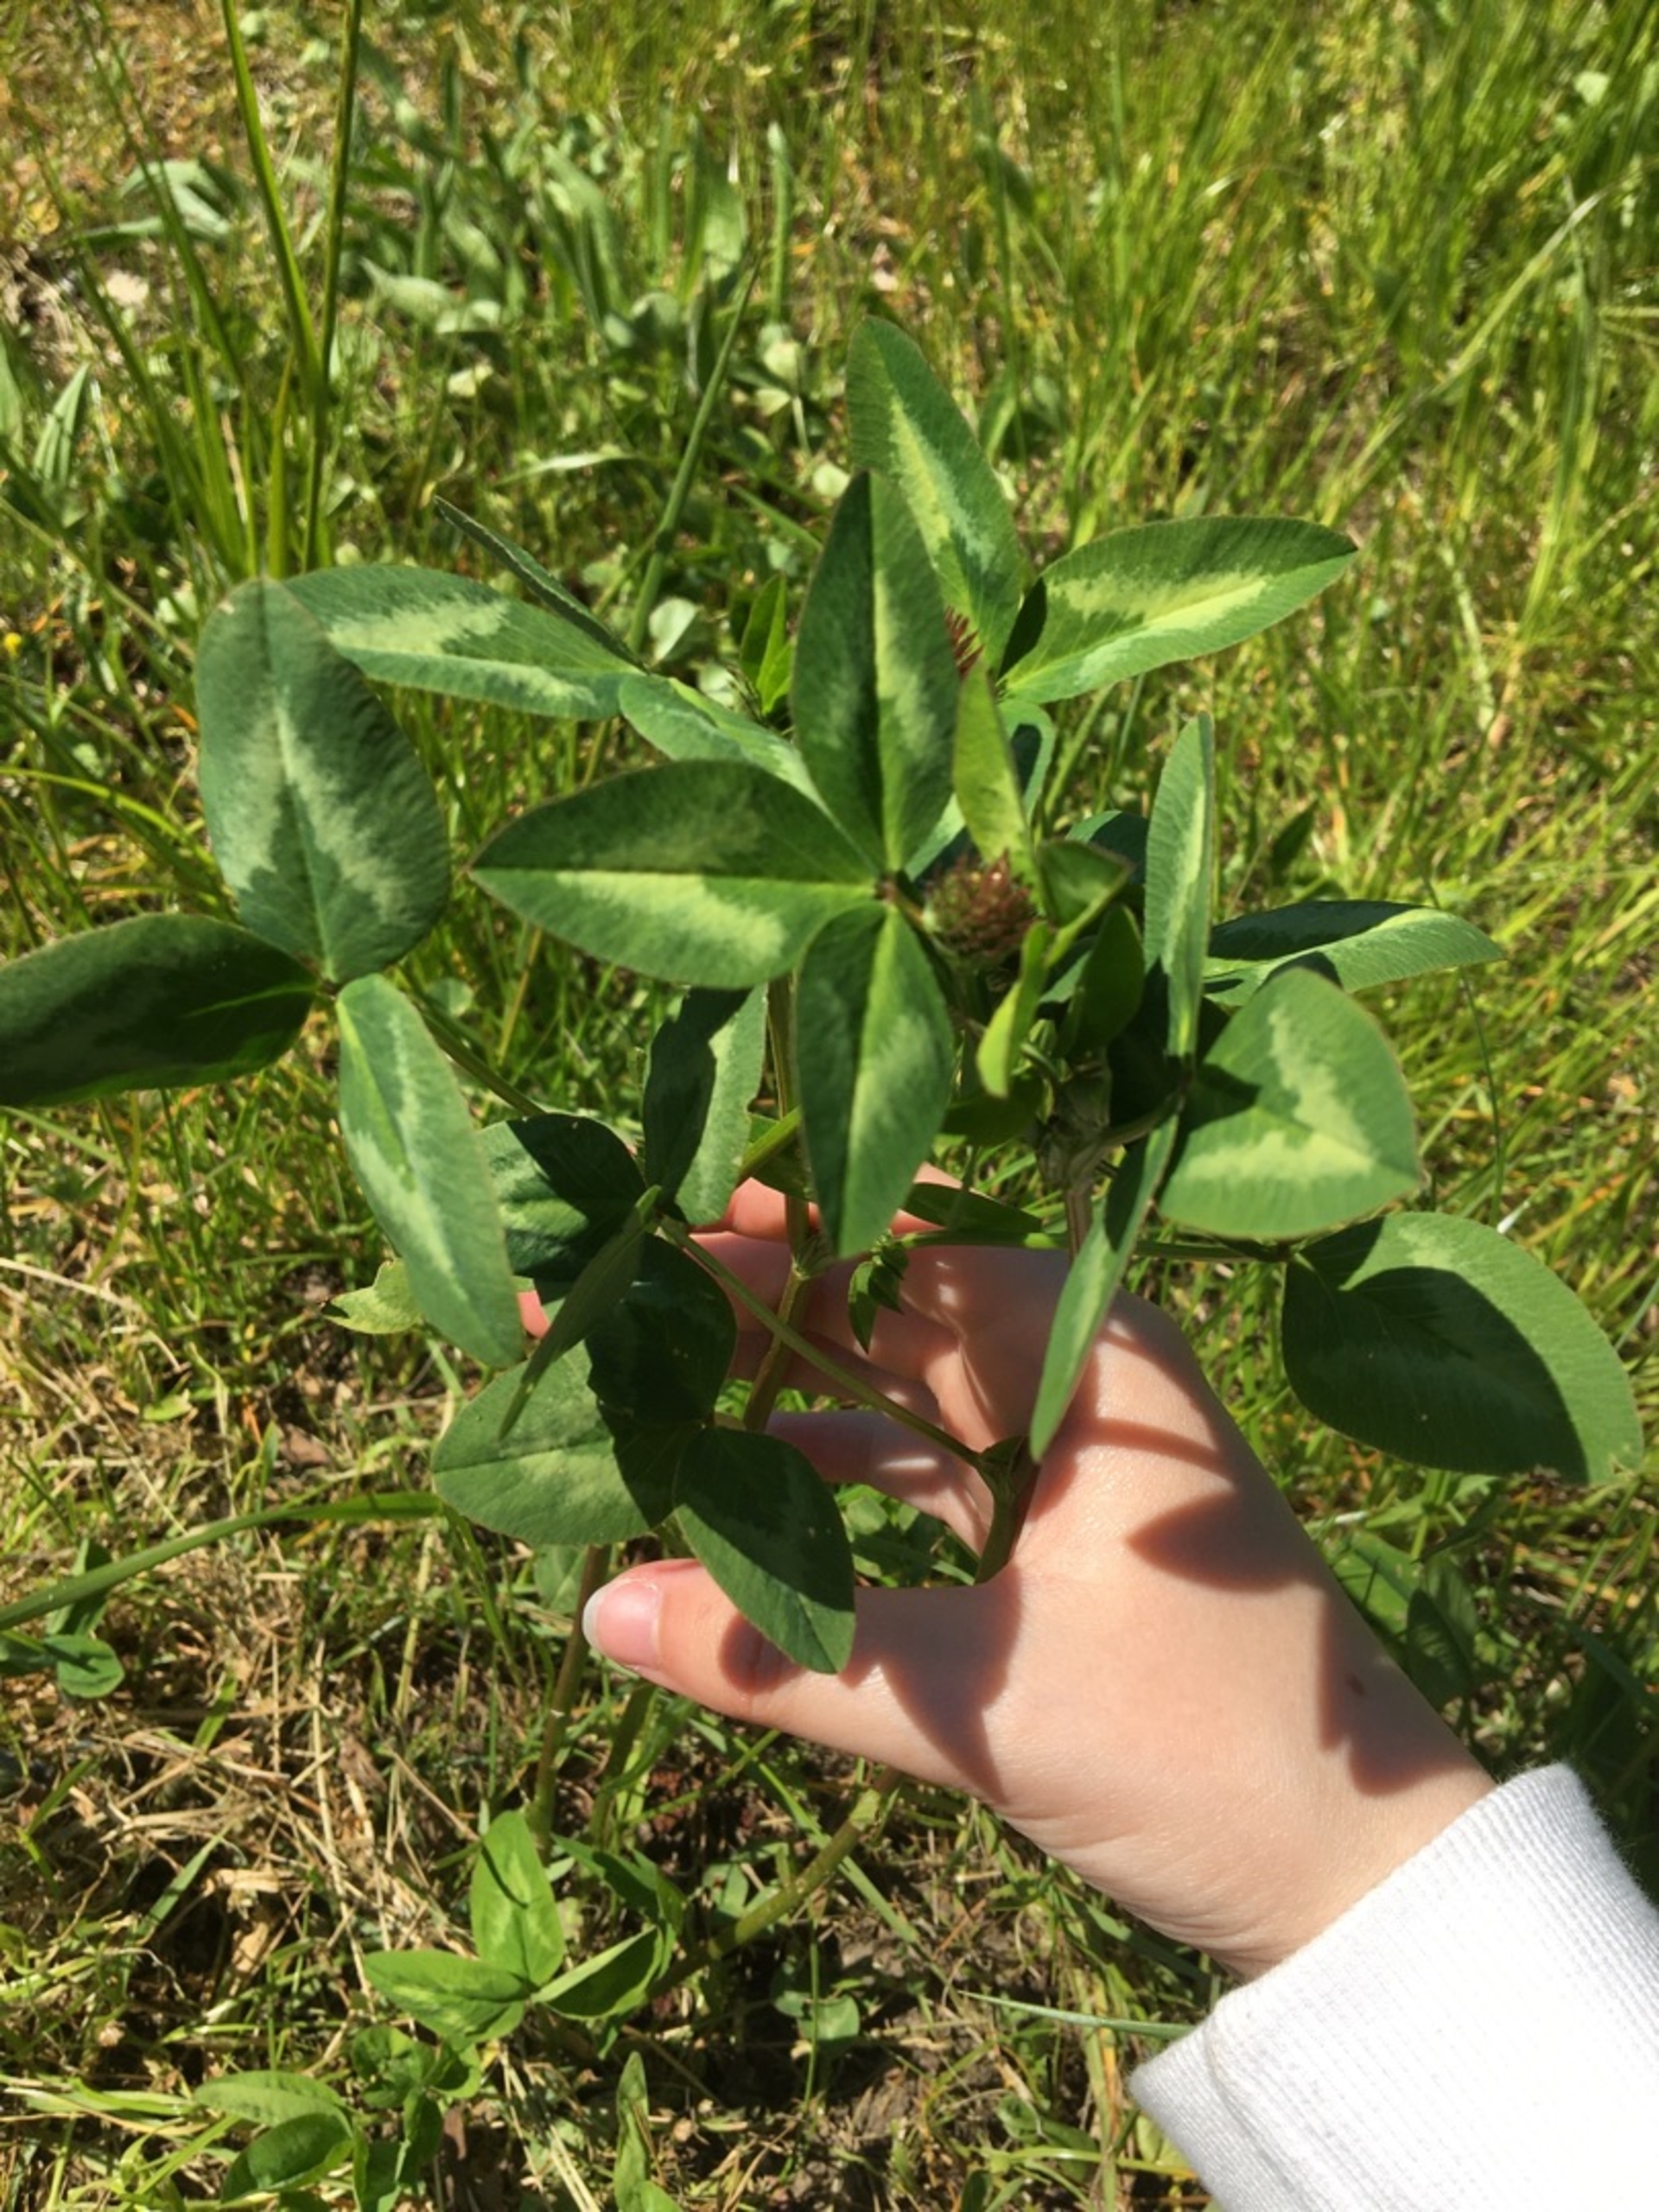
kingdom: Plantae
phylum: Tracheophyta
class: Magnoliopsida
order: Fabales
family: Fabaceae
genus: Trifolium
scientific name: Trifolium pratense
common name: Rød-kløver
